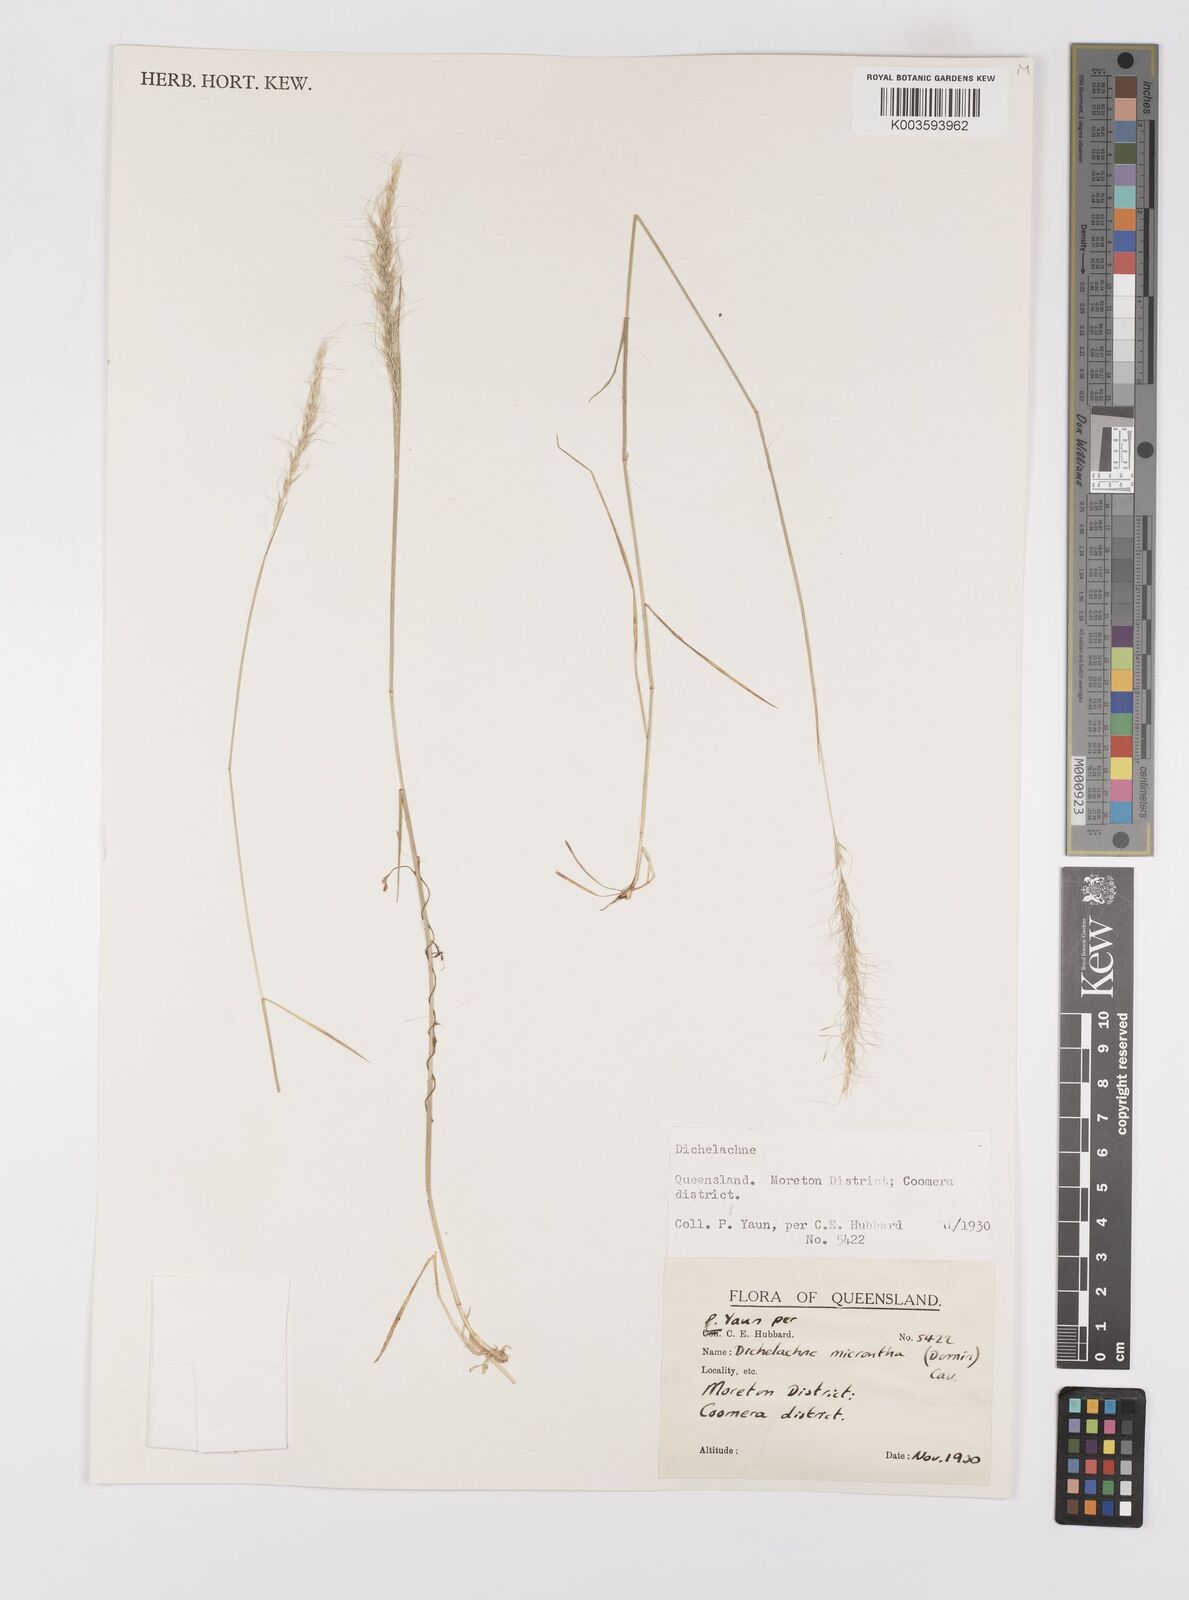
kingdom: Plantae
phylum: Tracheophyta
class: Liliopsida
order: Poales
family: Poaceae
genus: Dichelachne
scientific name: Dichelachne micrantha
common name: Plumegrass
